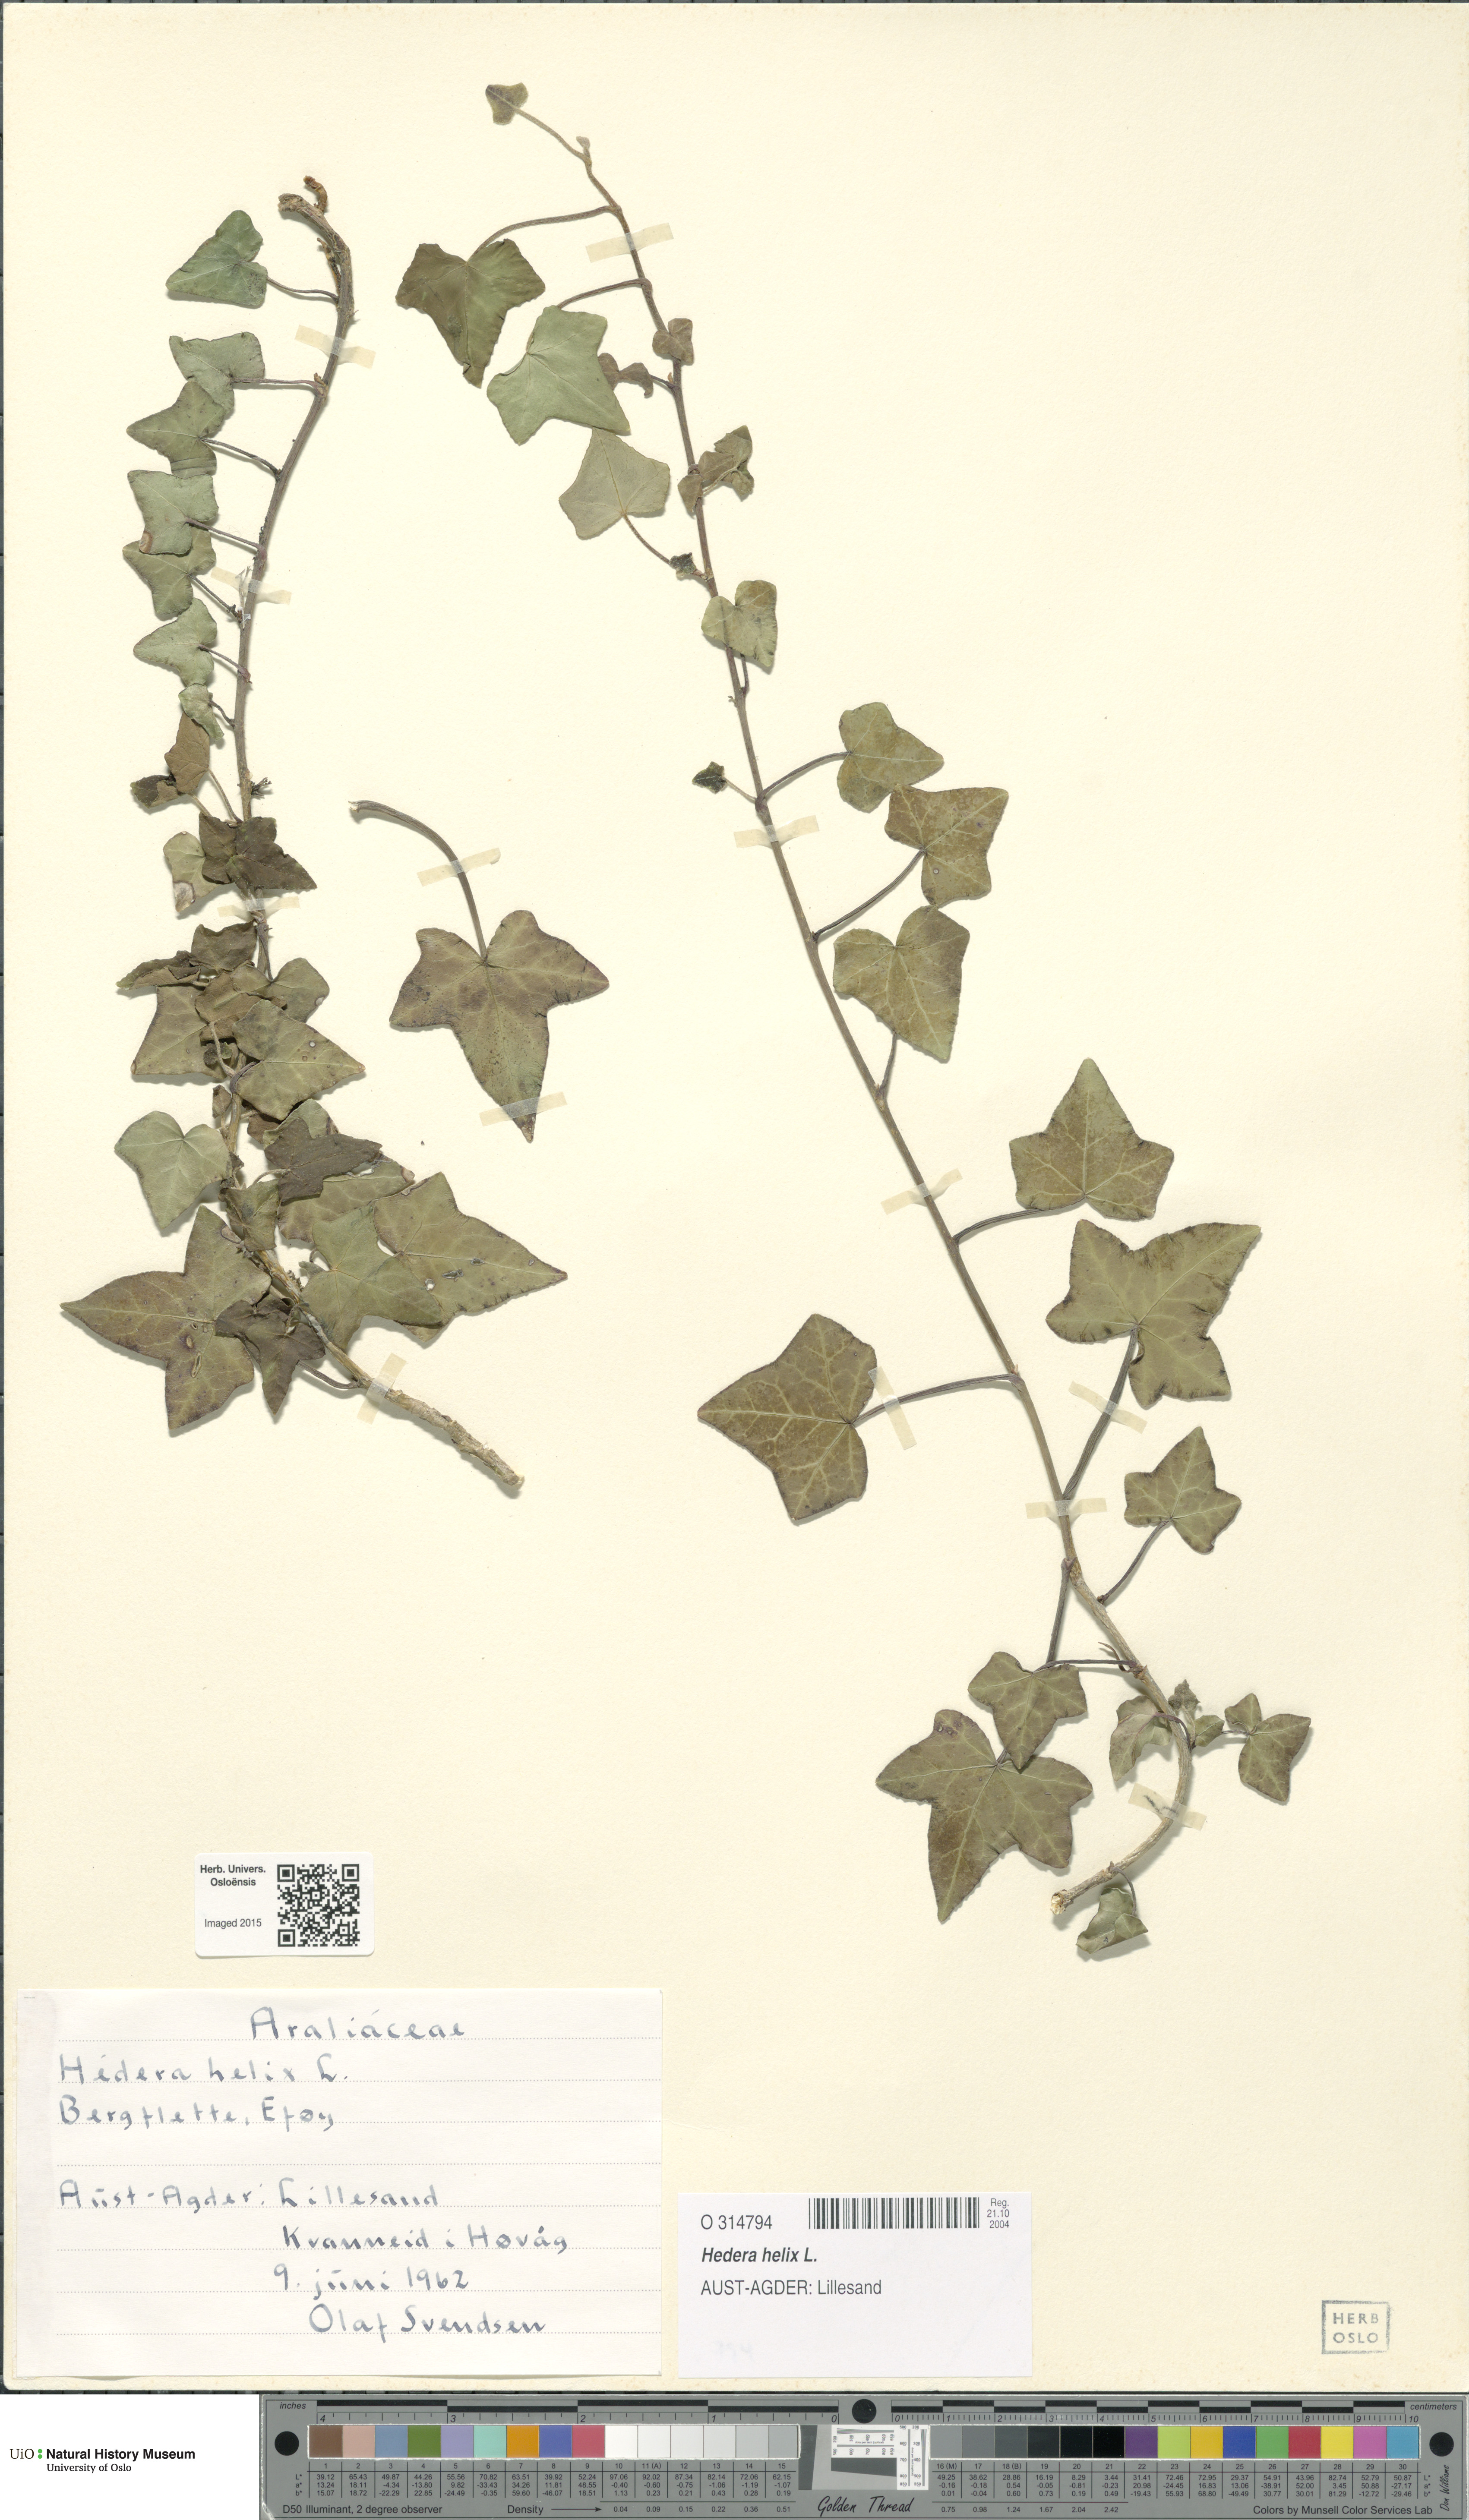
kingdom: Plantae
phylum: Tracheophyta
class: Magnoliopsida
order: Apiales
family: Araliaceae
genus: Hedera
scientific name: Hedera helix
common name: Ivy
